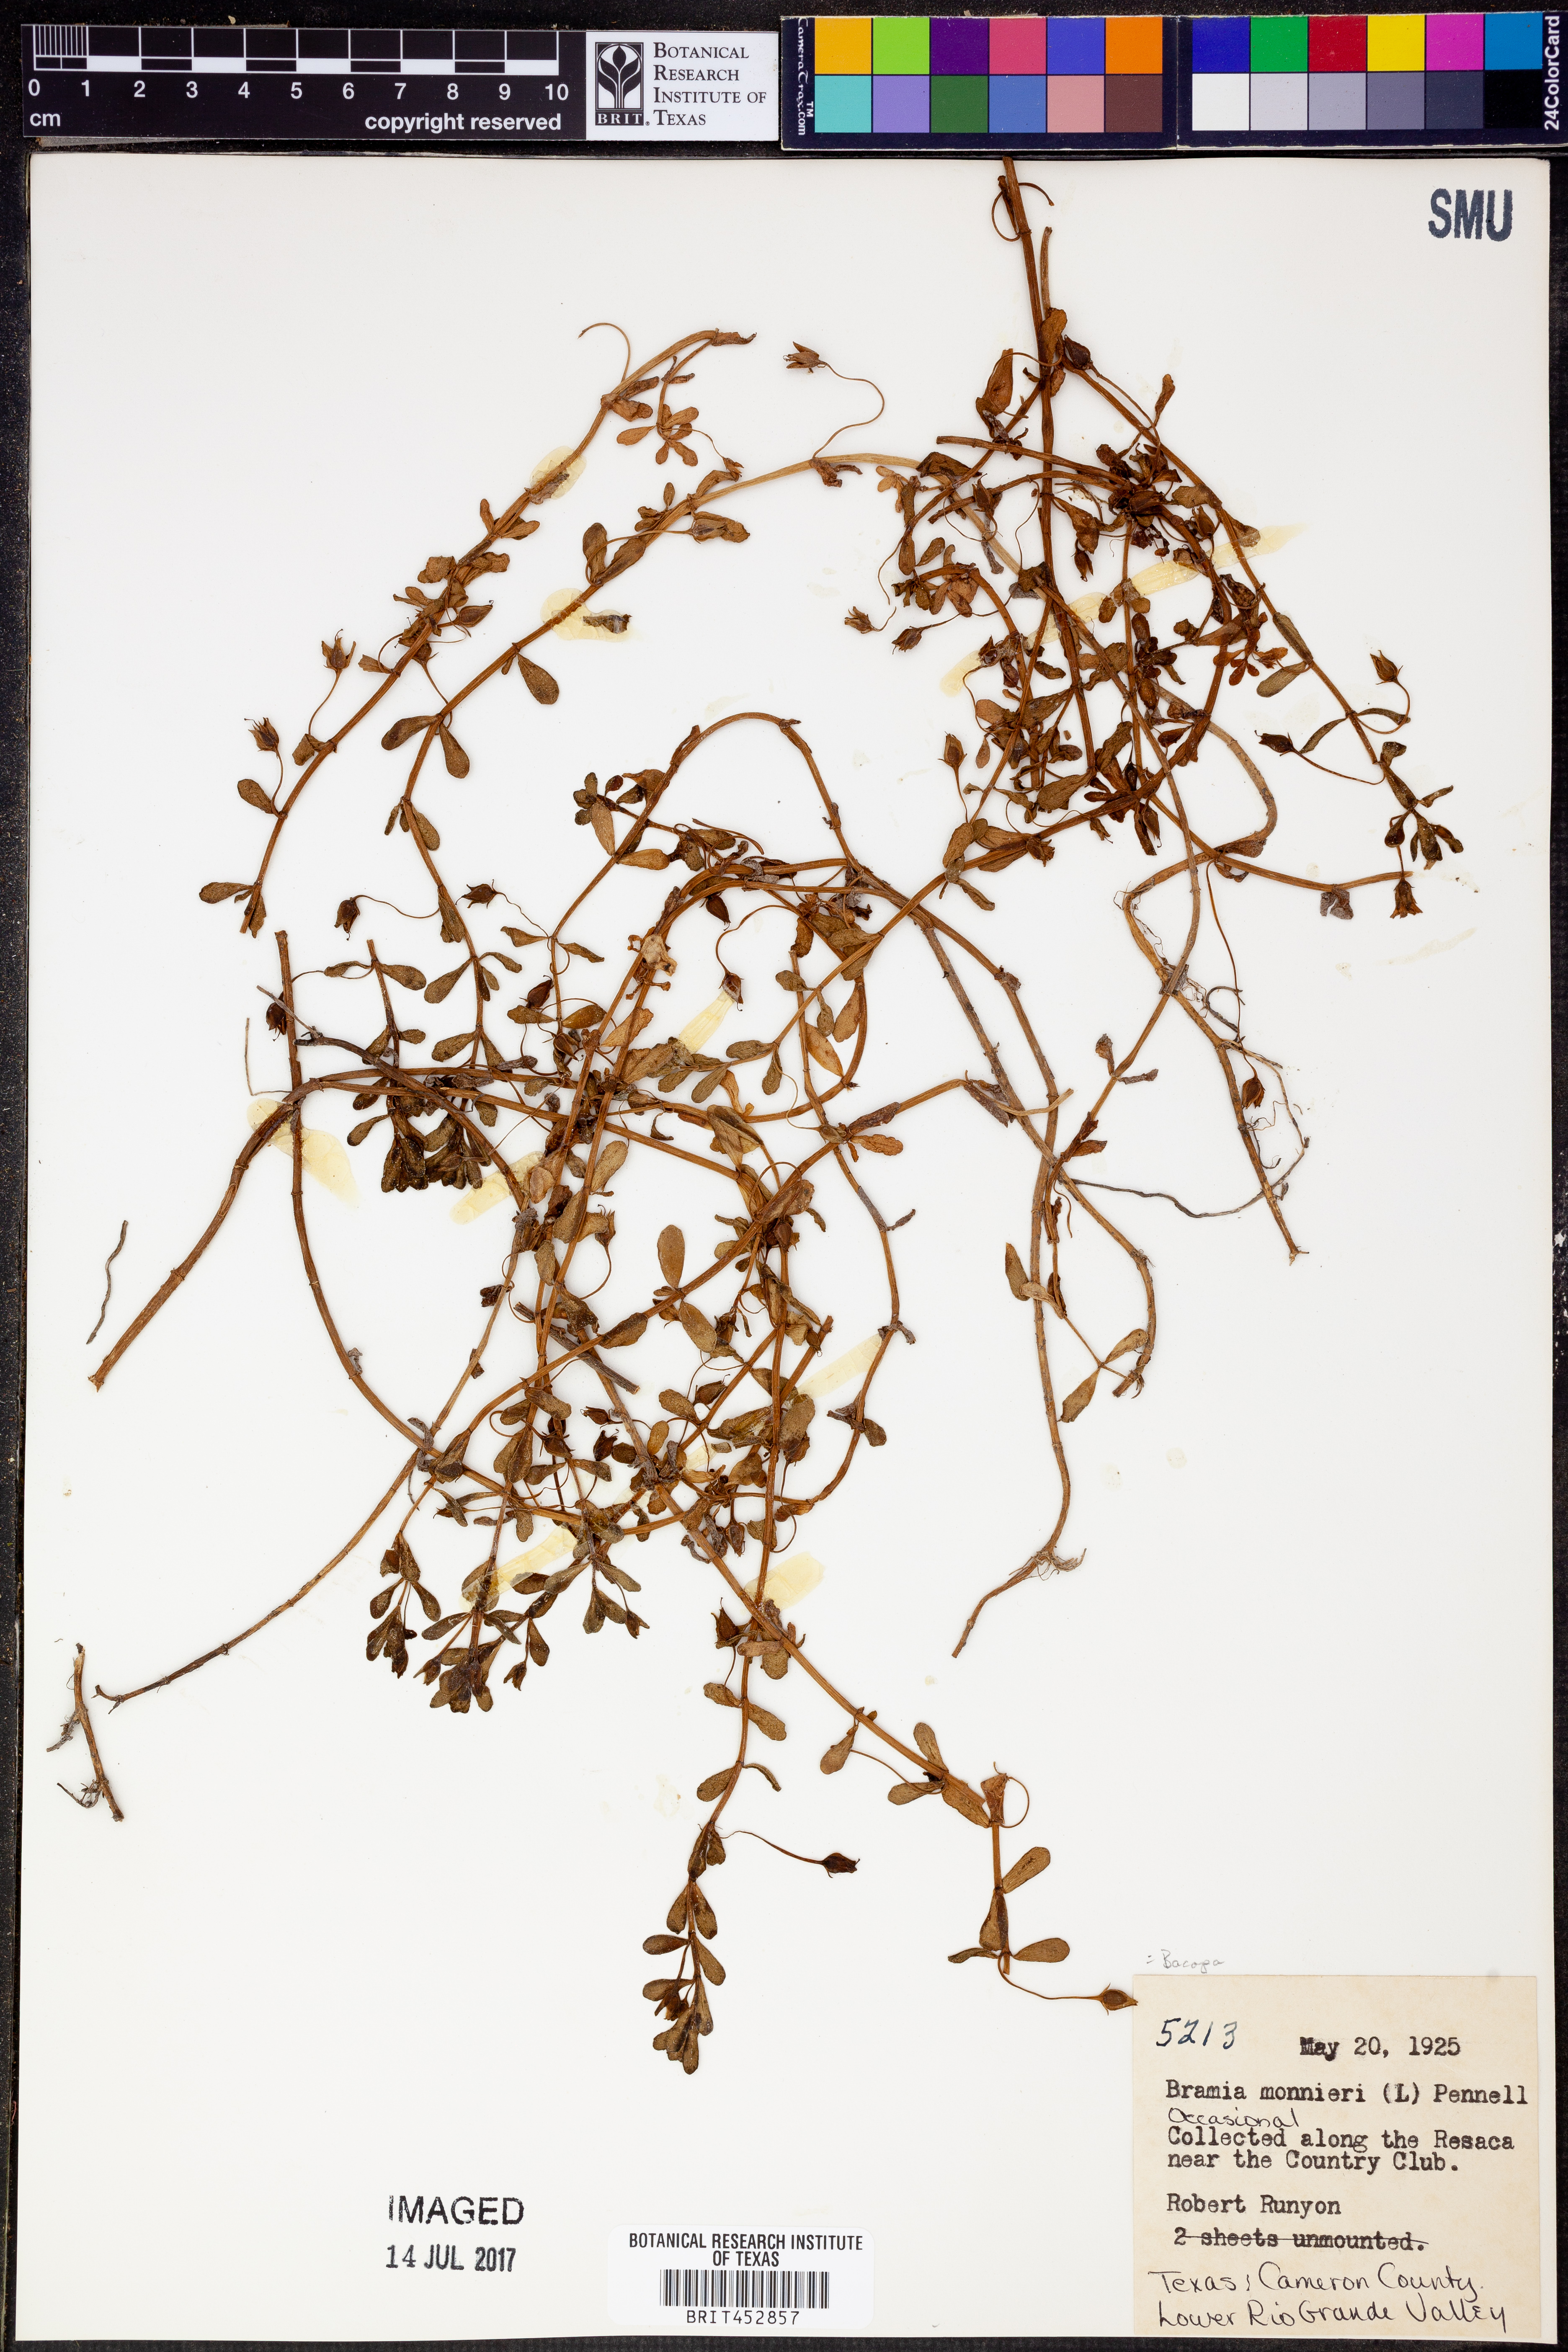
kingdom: Plantae
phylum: Tracheophyta
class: Magnoliopsida
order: Lamiales
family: Plantaginaceae
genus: Bacopa
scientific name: Bacopa monnieri
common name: Indian-pennywort
